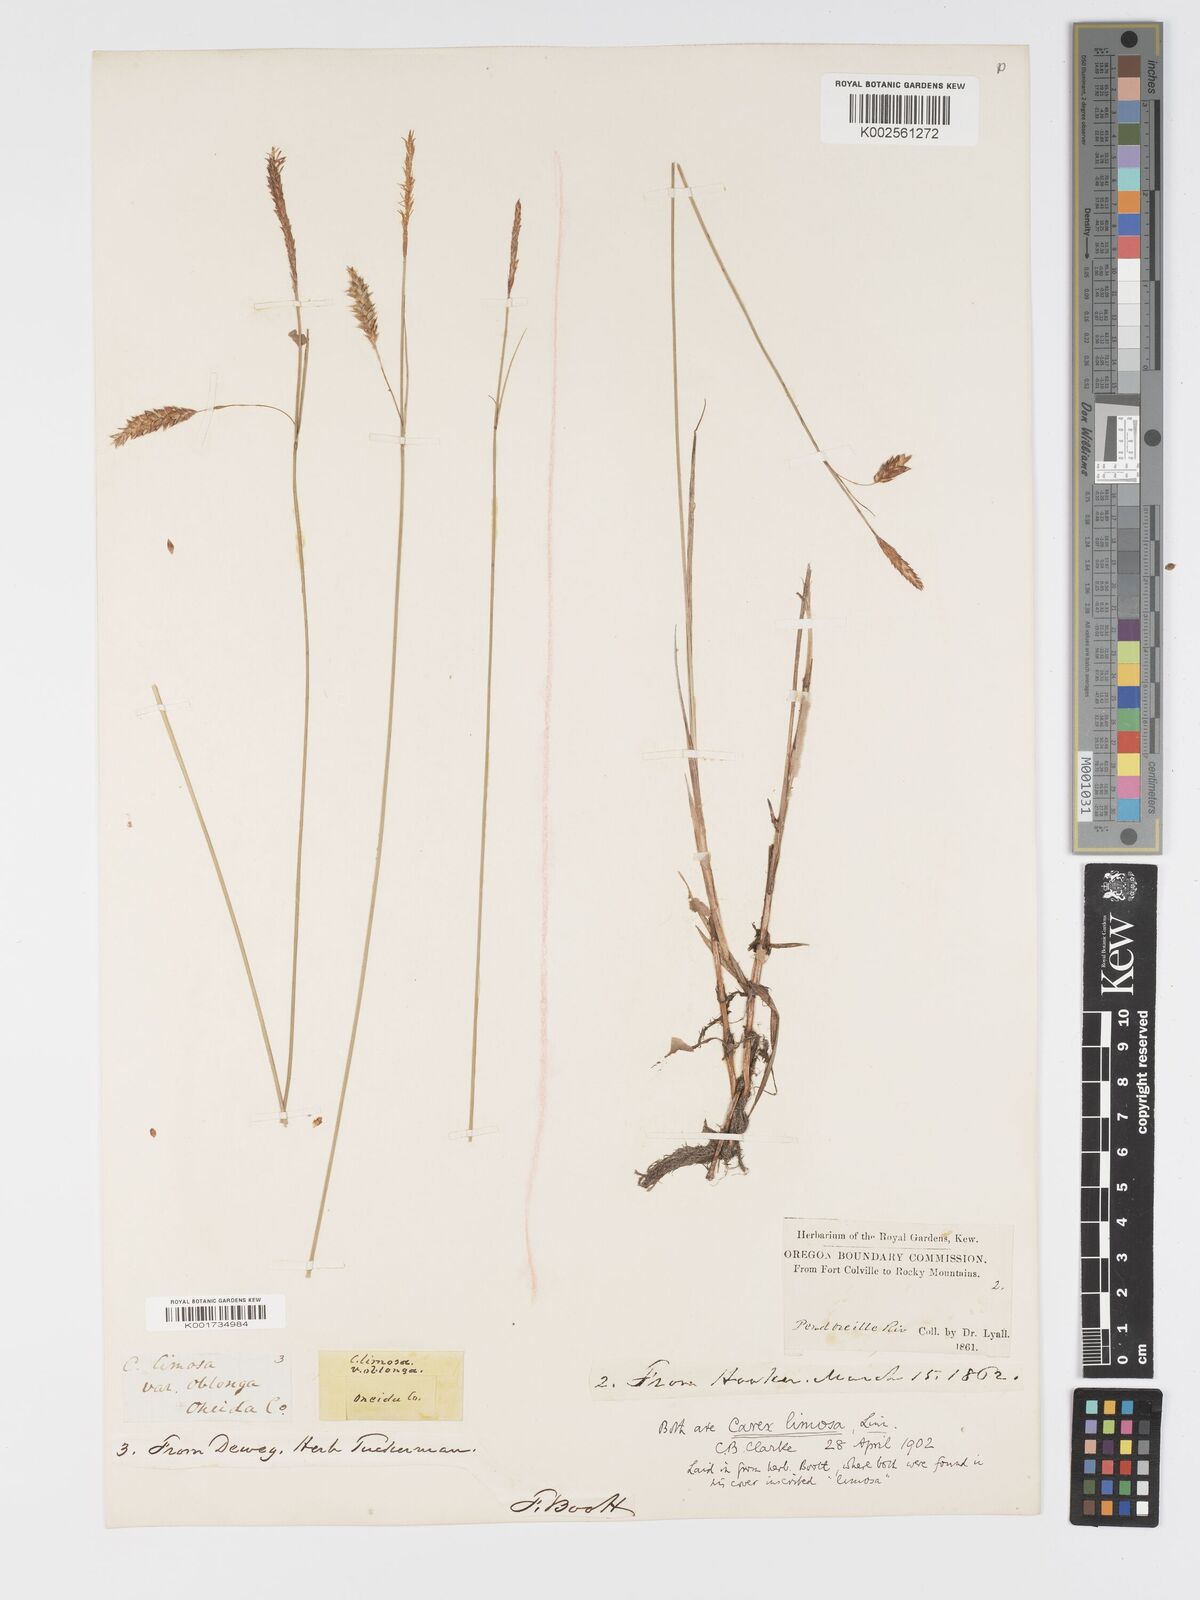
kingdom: Plantae
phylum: Tracheophyta
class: Liliopsida
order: Poales
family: Cyperaceae
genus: Carex
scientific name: Carex limosa
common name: Bog sedge
